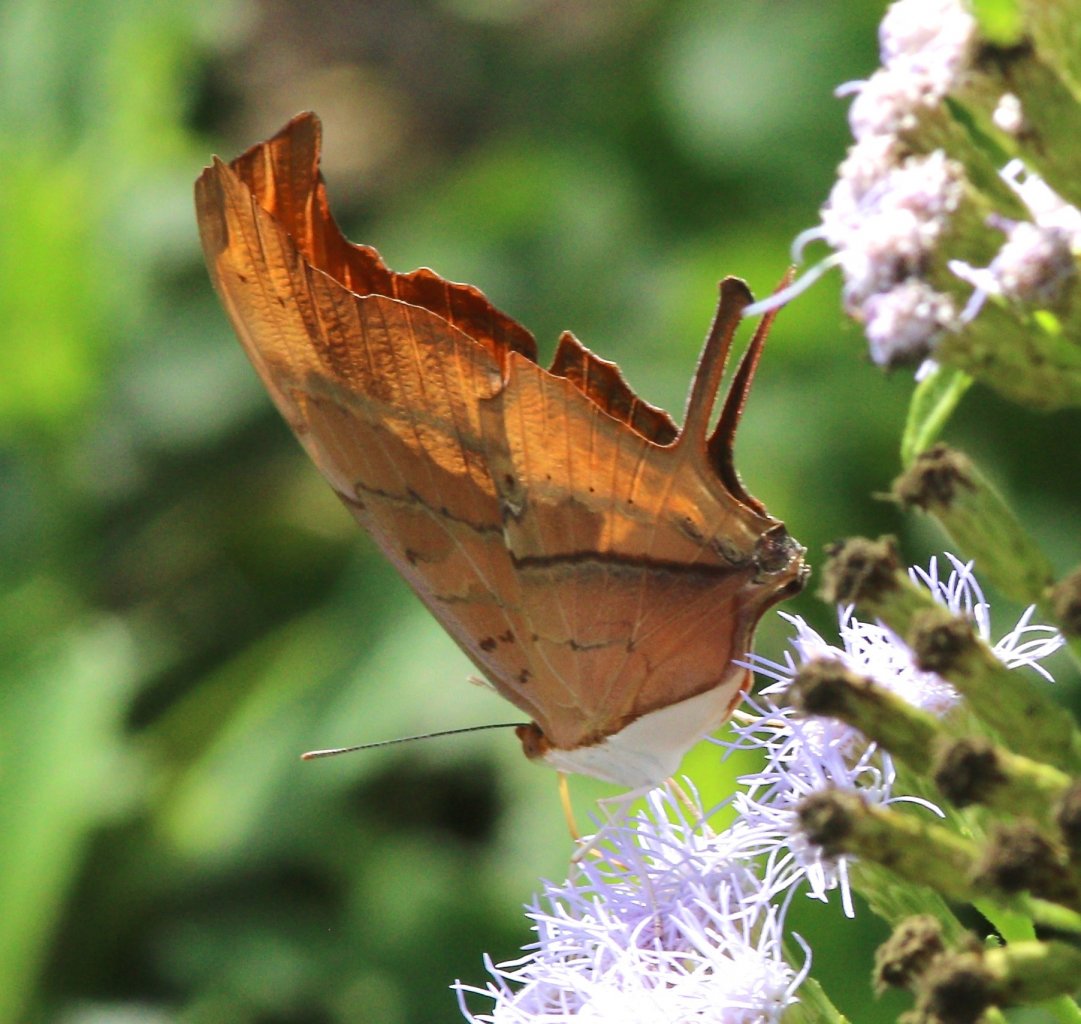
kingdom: Animalia
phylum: Arthropoda
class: Insecta
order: Lepidoptera
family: Nymphalidae
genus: Marpesia
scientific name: Marpesia petreus
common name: Ruddy Daggerwing
